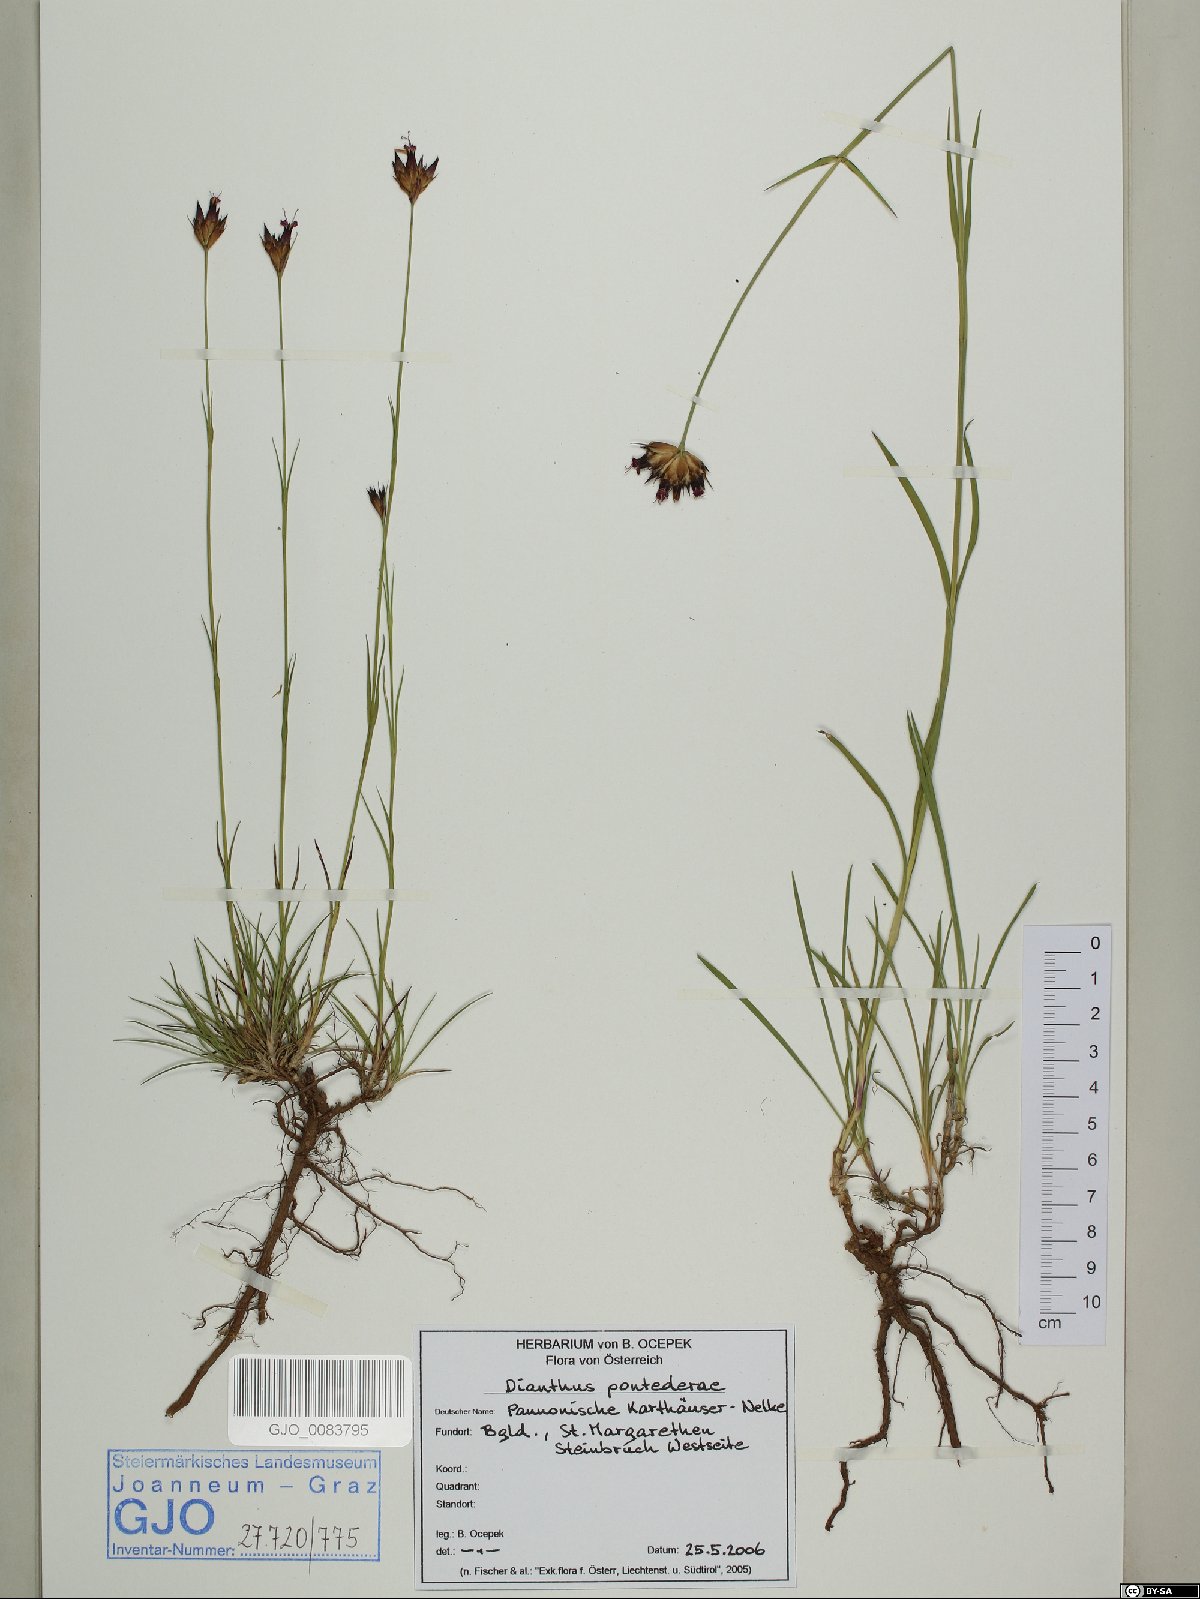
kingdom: Plantae
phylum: Tracheophyta
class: Magnoliopsida
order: Caryophyllales
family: Caryophyllaceae
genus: Dianthus
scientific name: Dianthus pontederae
